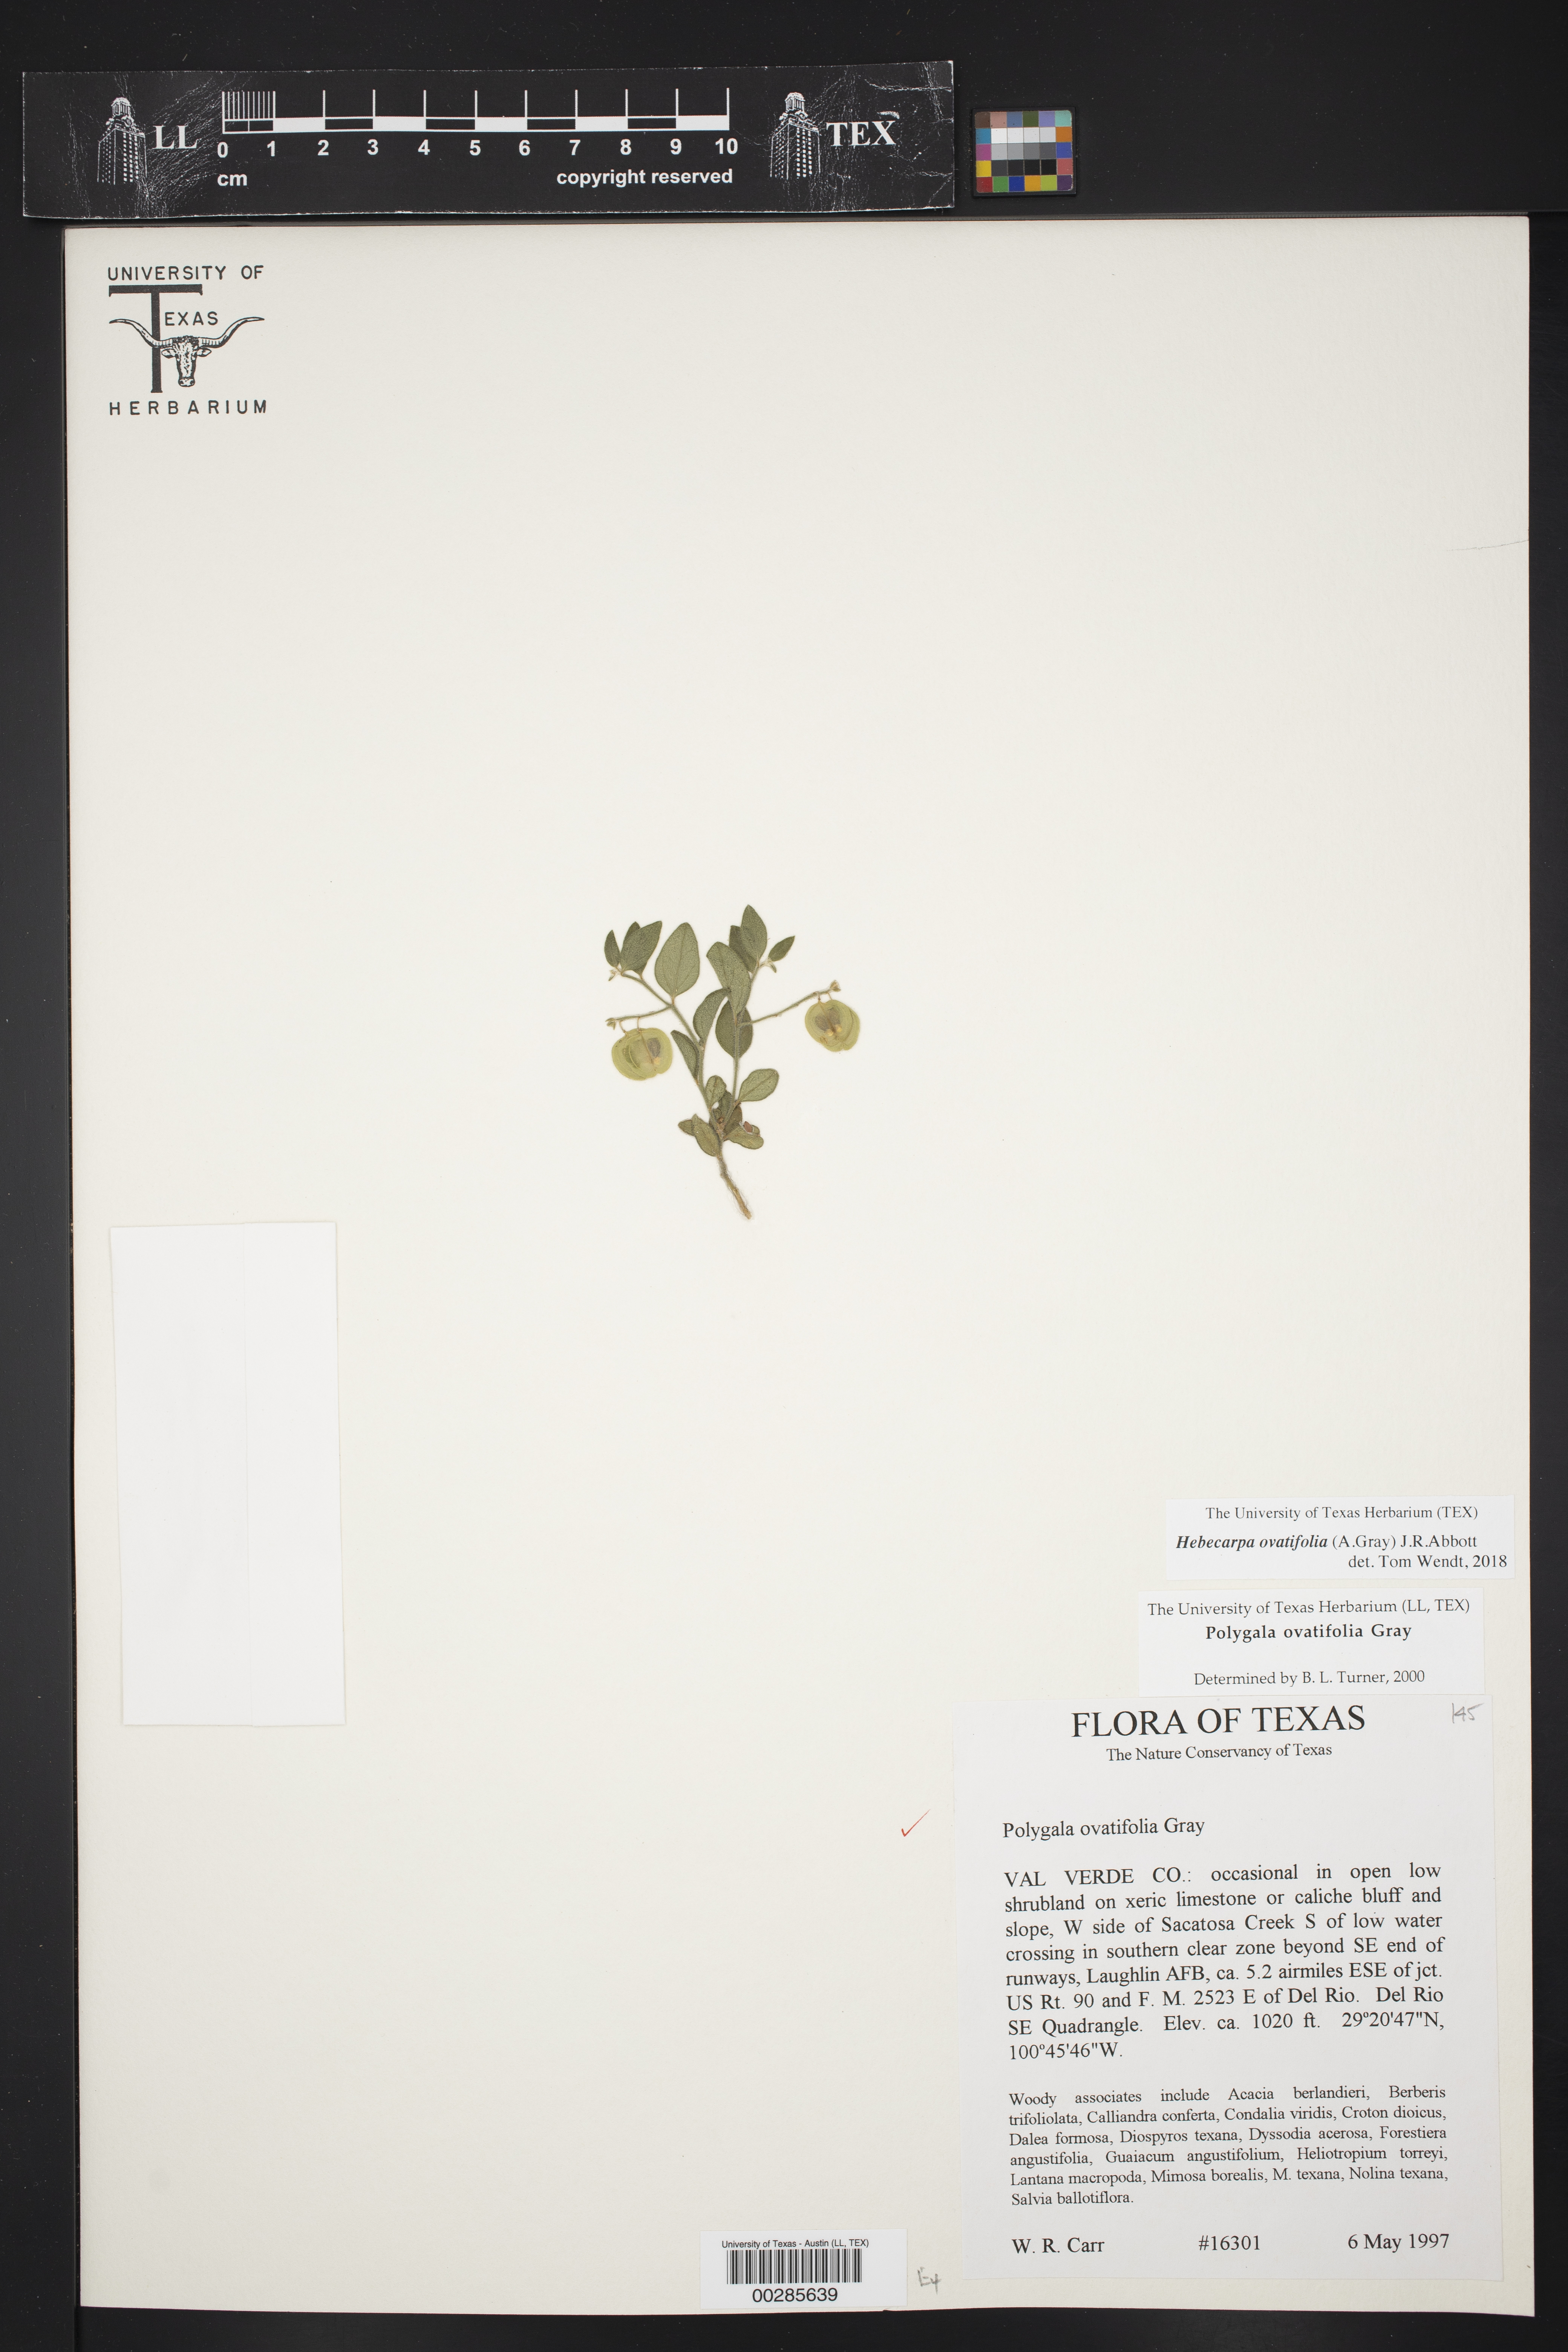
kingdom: Plantae
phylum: Tracheophyta
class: Magnoliopsida
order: Fabales
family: Polygalaceae
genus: Hebecarpa
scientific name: Hebecarpa ovatifolia
